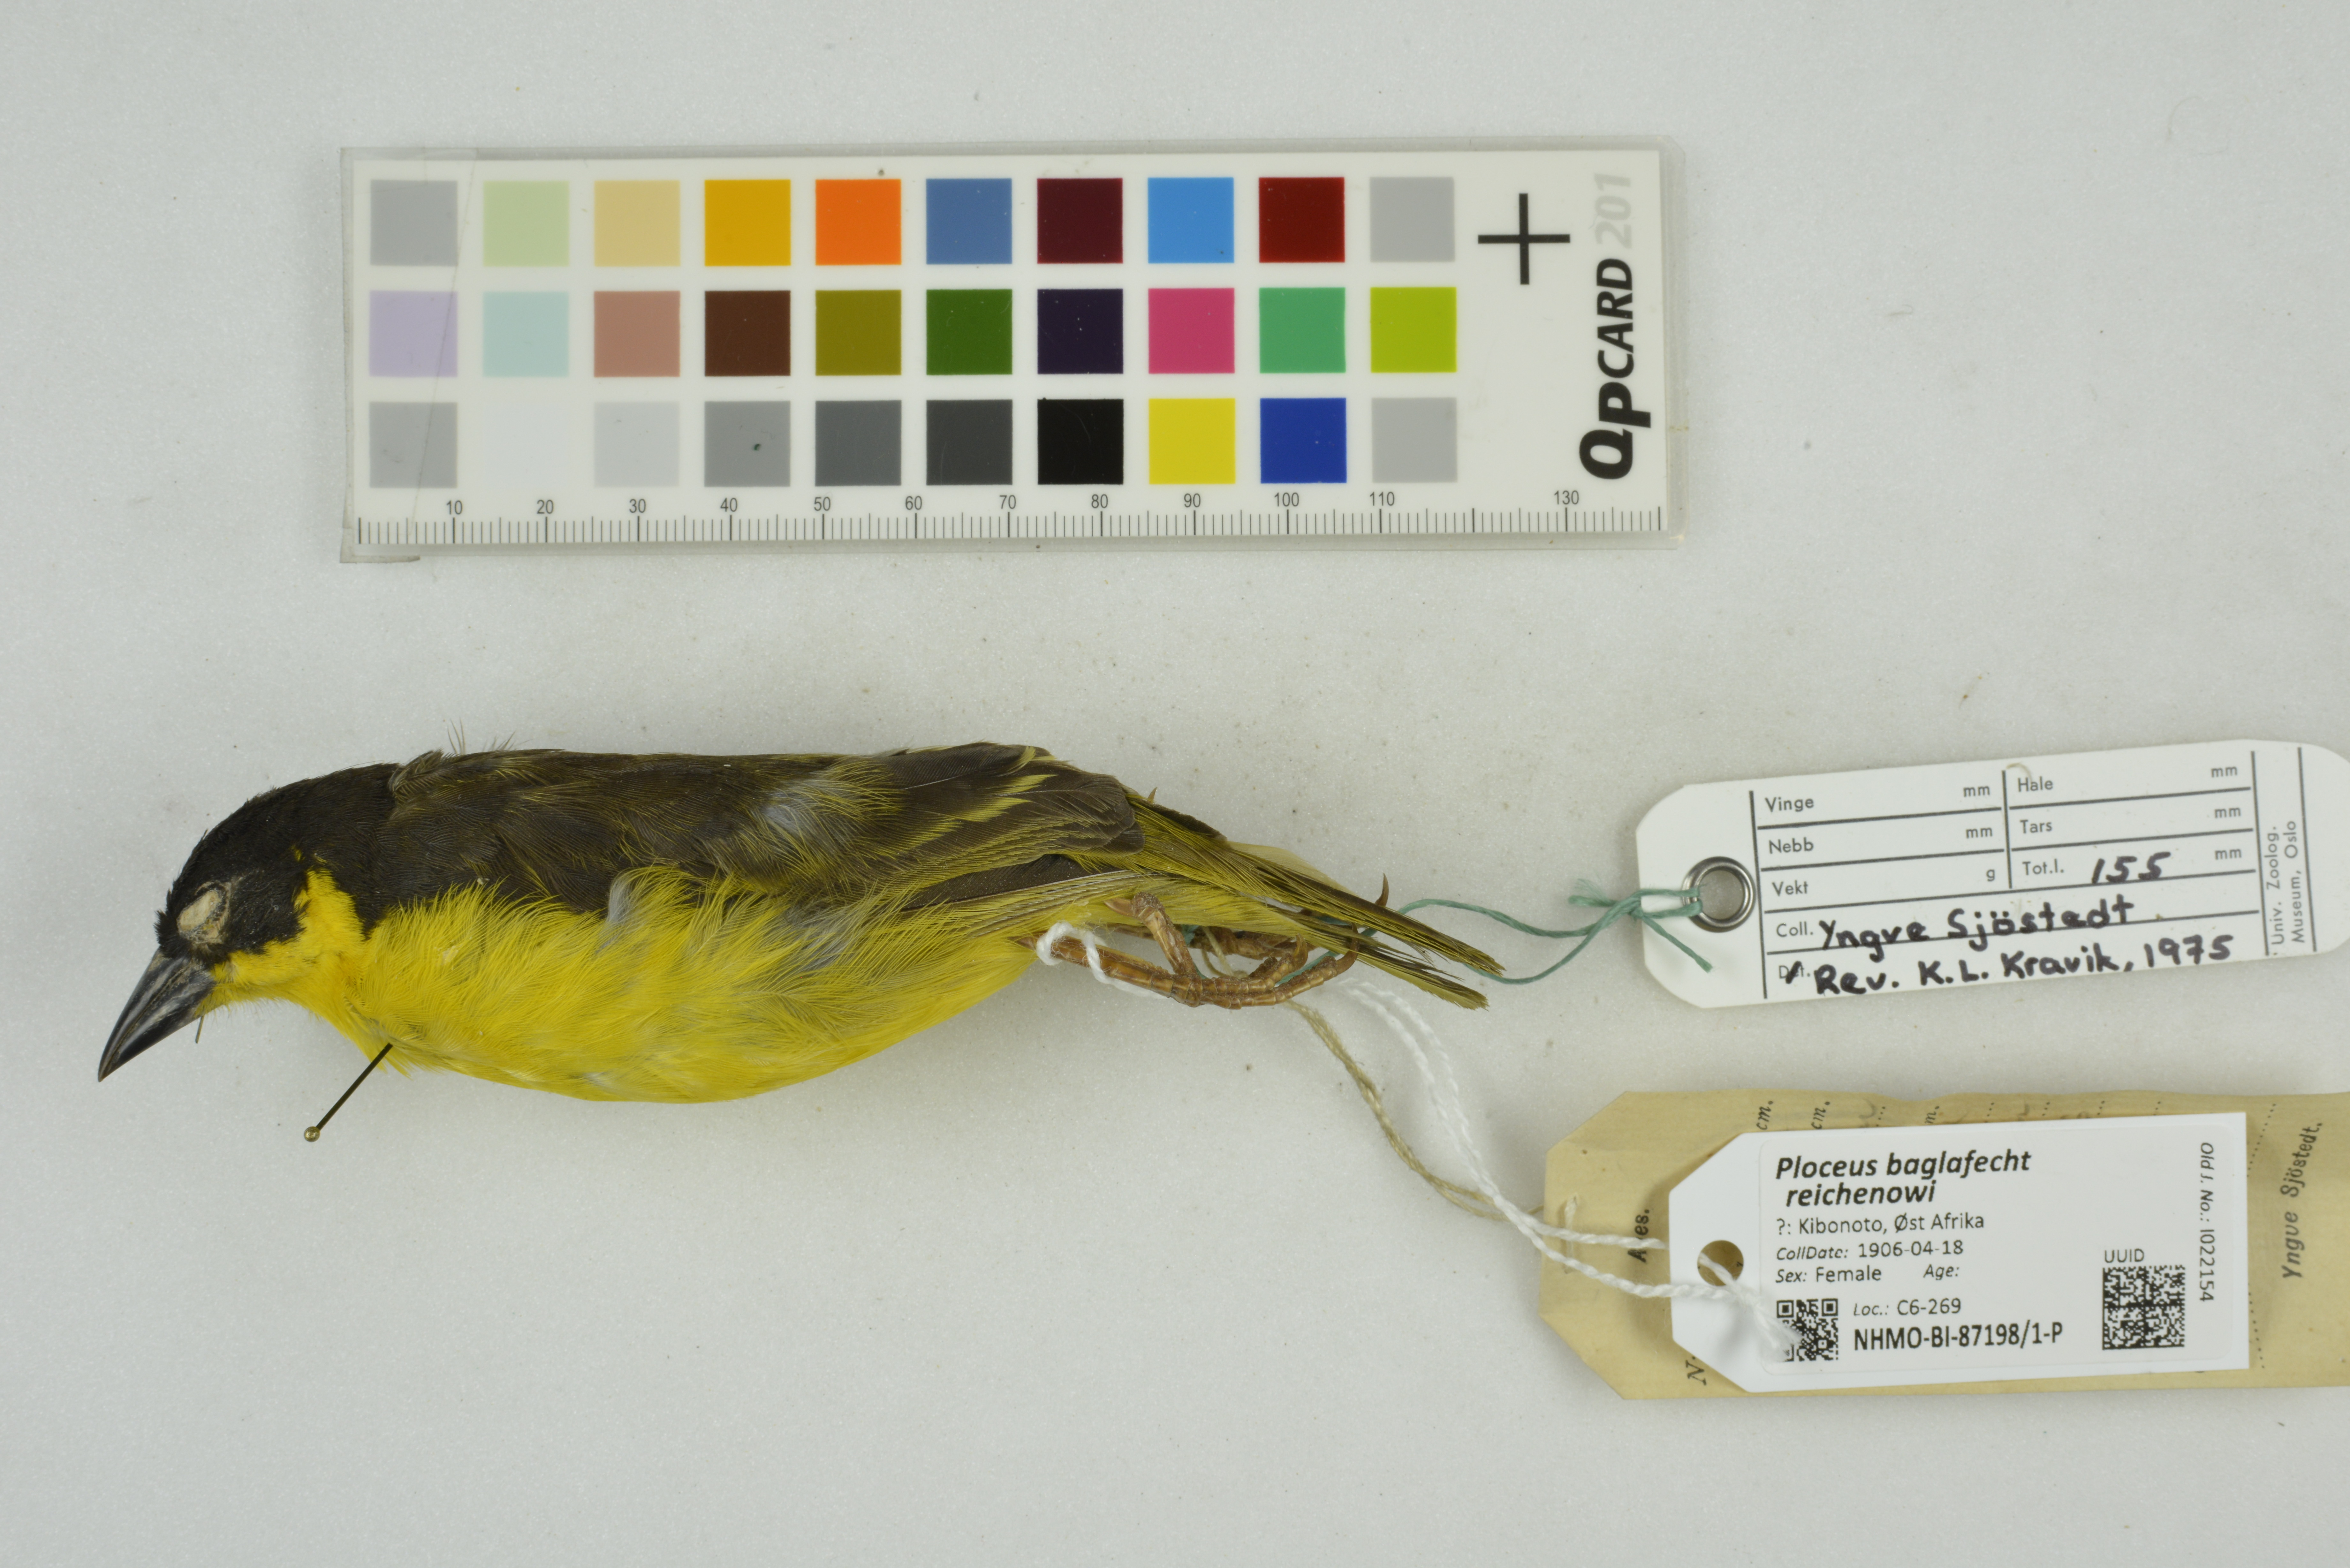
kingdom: Animalia
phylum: Chordata
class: Aves
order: Passeriformes
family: Ploceidae
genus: Ploceus
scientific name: Ploceus baglafecht
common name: Baglafecht weaver
